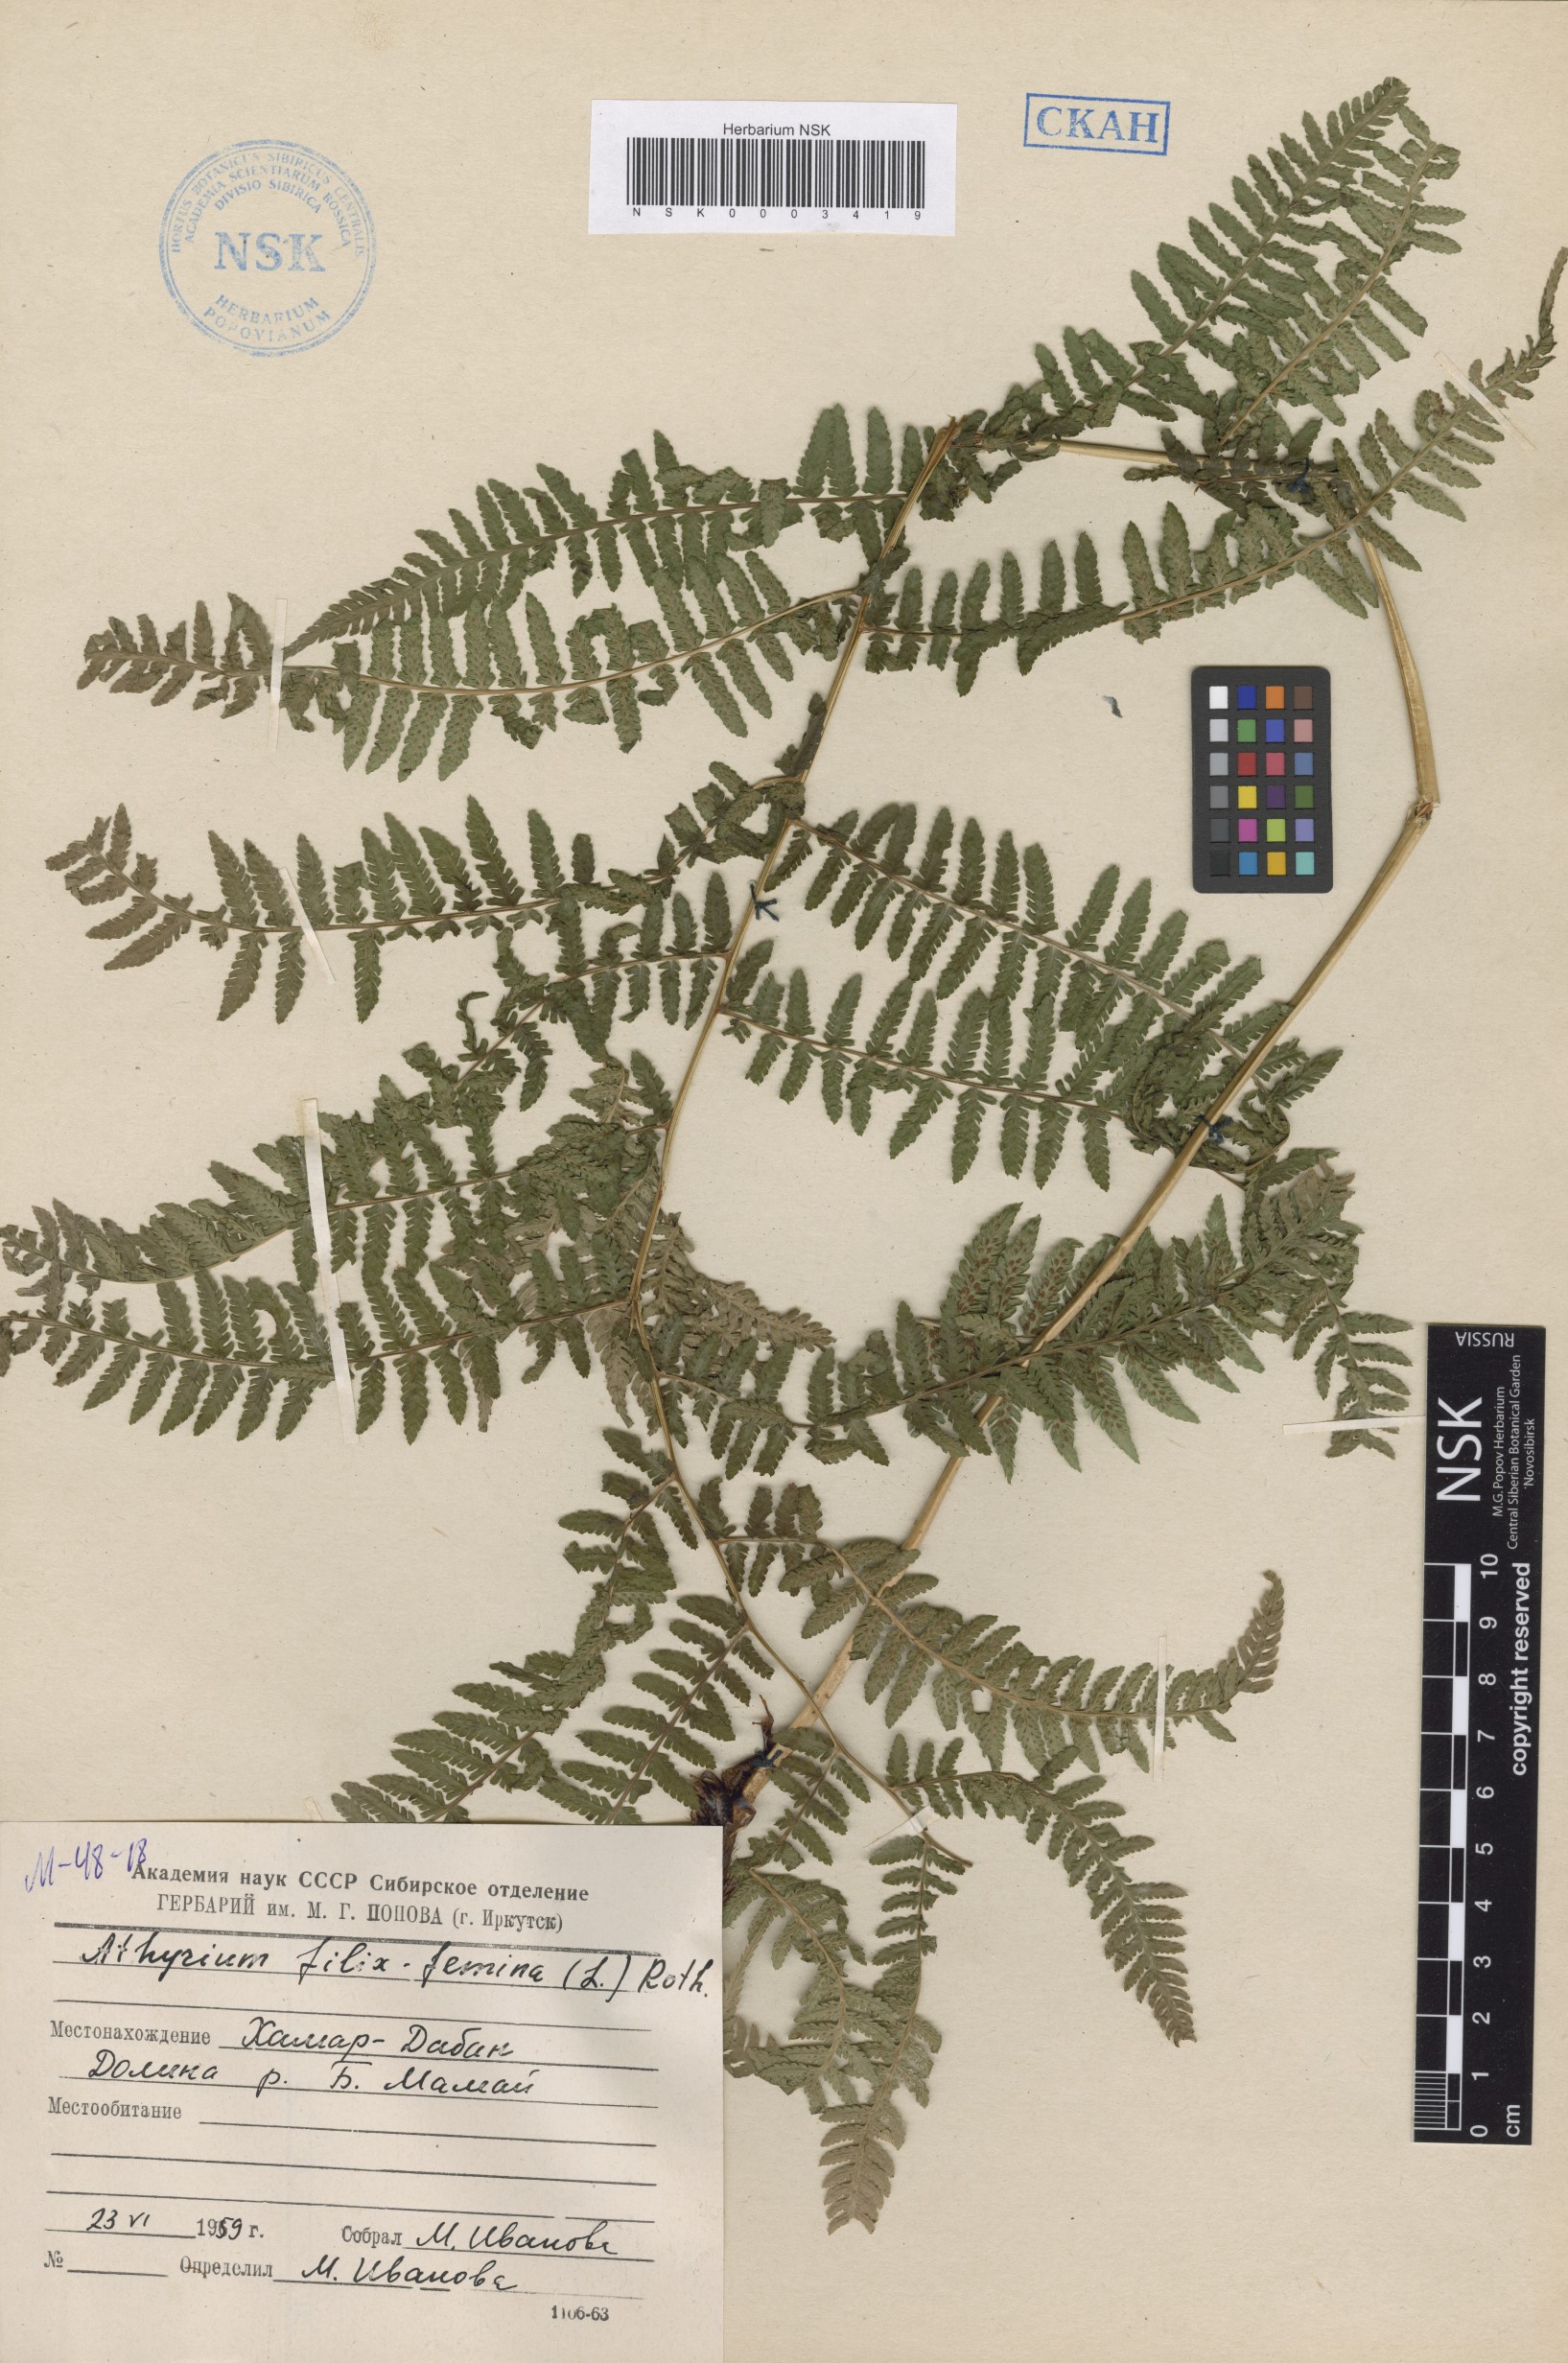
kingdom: Plantae
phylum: Tracheophyta
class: Polypodiopsida
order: Polypodiales
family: Athyriaceae
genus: Athyrium
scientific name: Athyrium filix-femina
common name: Lady fern
